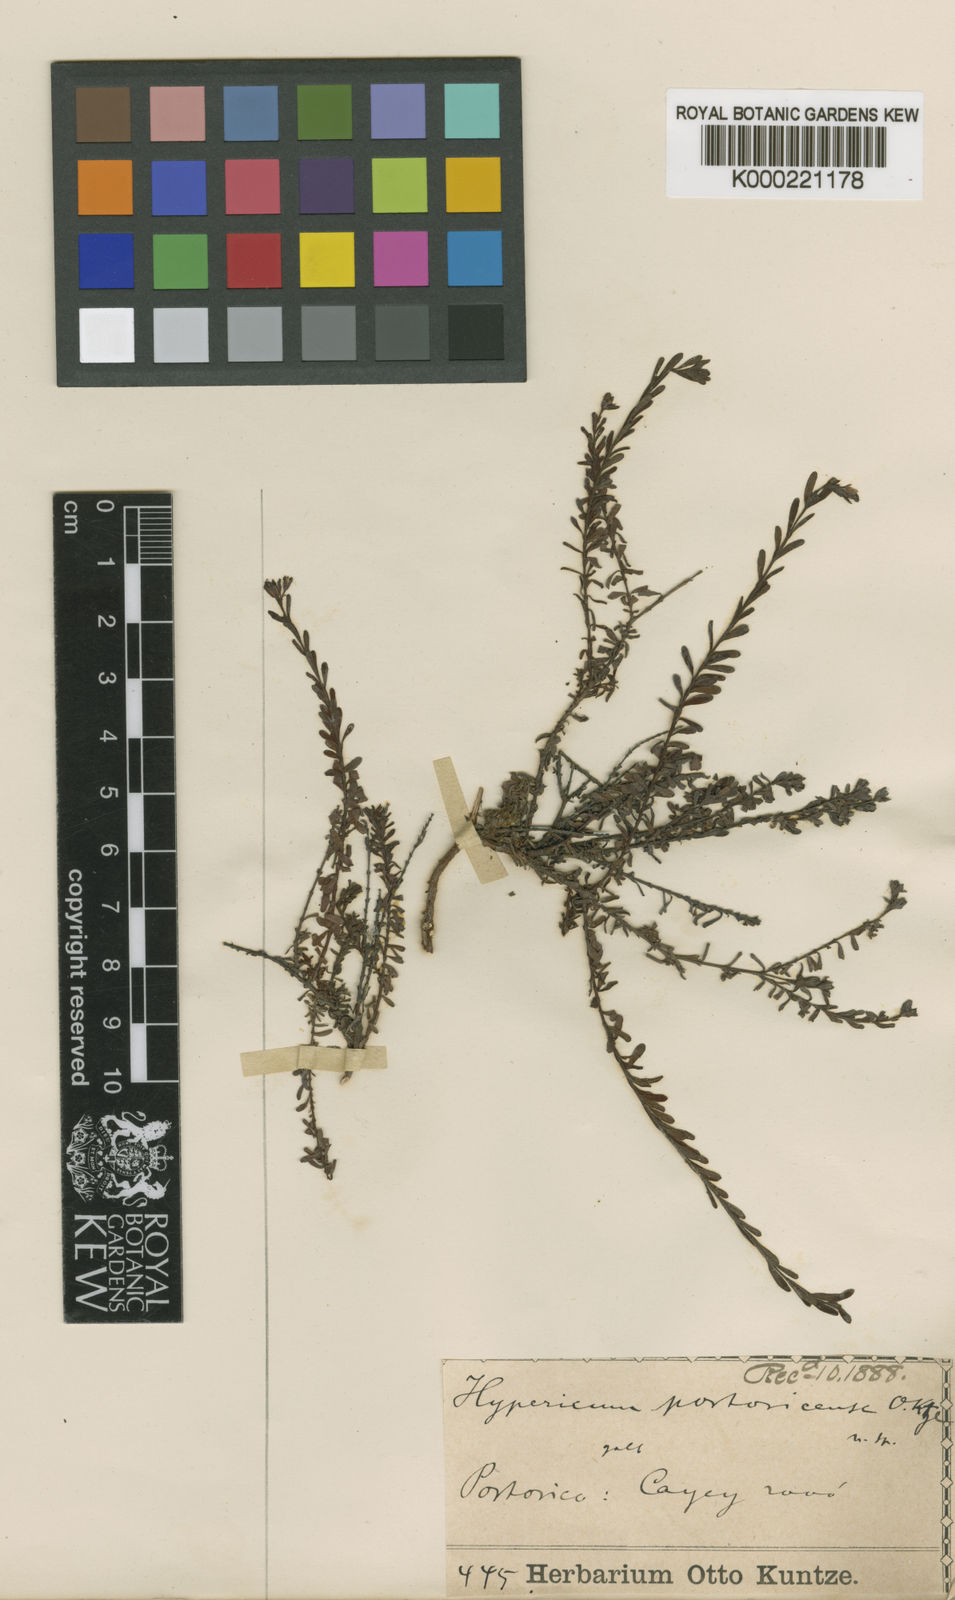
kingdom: Plantae
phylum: Tracheophyta
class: Magnoliopsida
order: Malpighiales
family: Hypericaceae
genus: Hypericum
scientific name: Hypericum diosmoides
